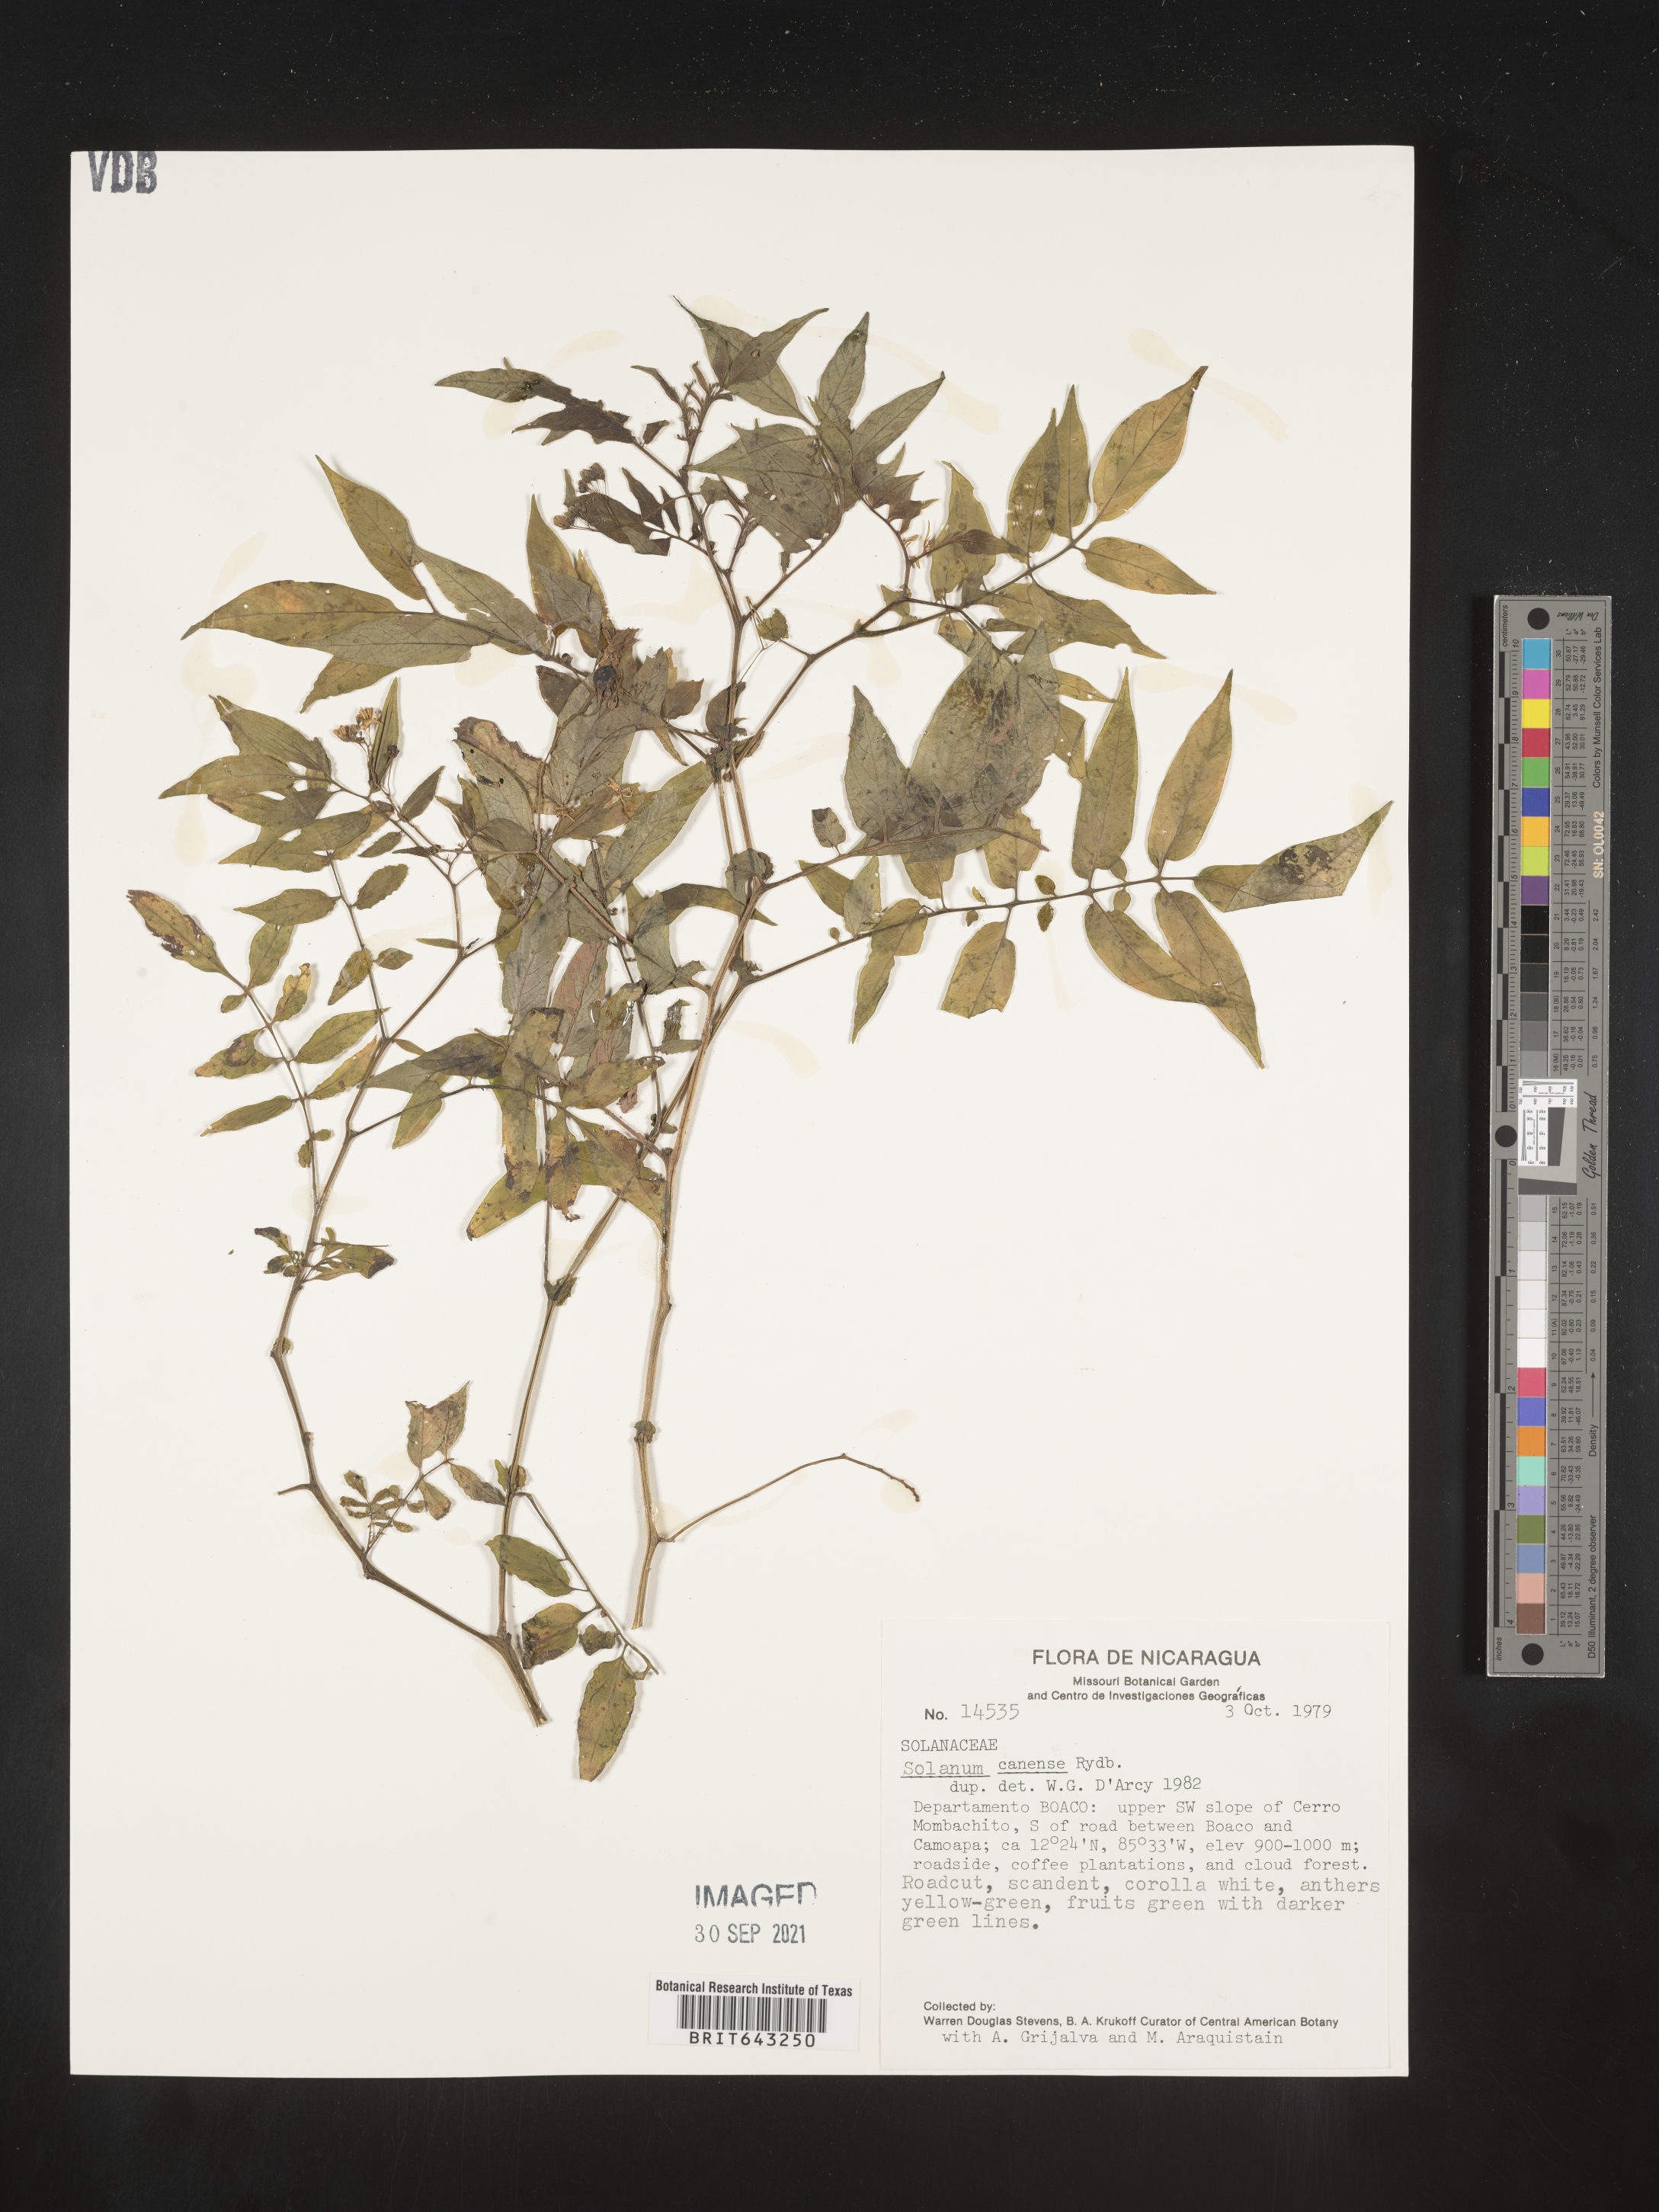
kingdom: Plantae
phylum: Tracheophyta
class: Magnoliopsida
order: Solanales
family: Solanaceae
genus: Solanum
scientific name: Solanum
